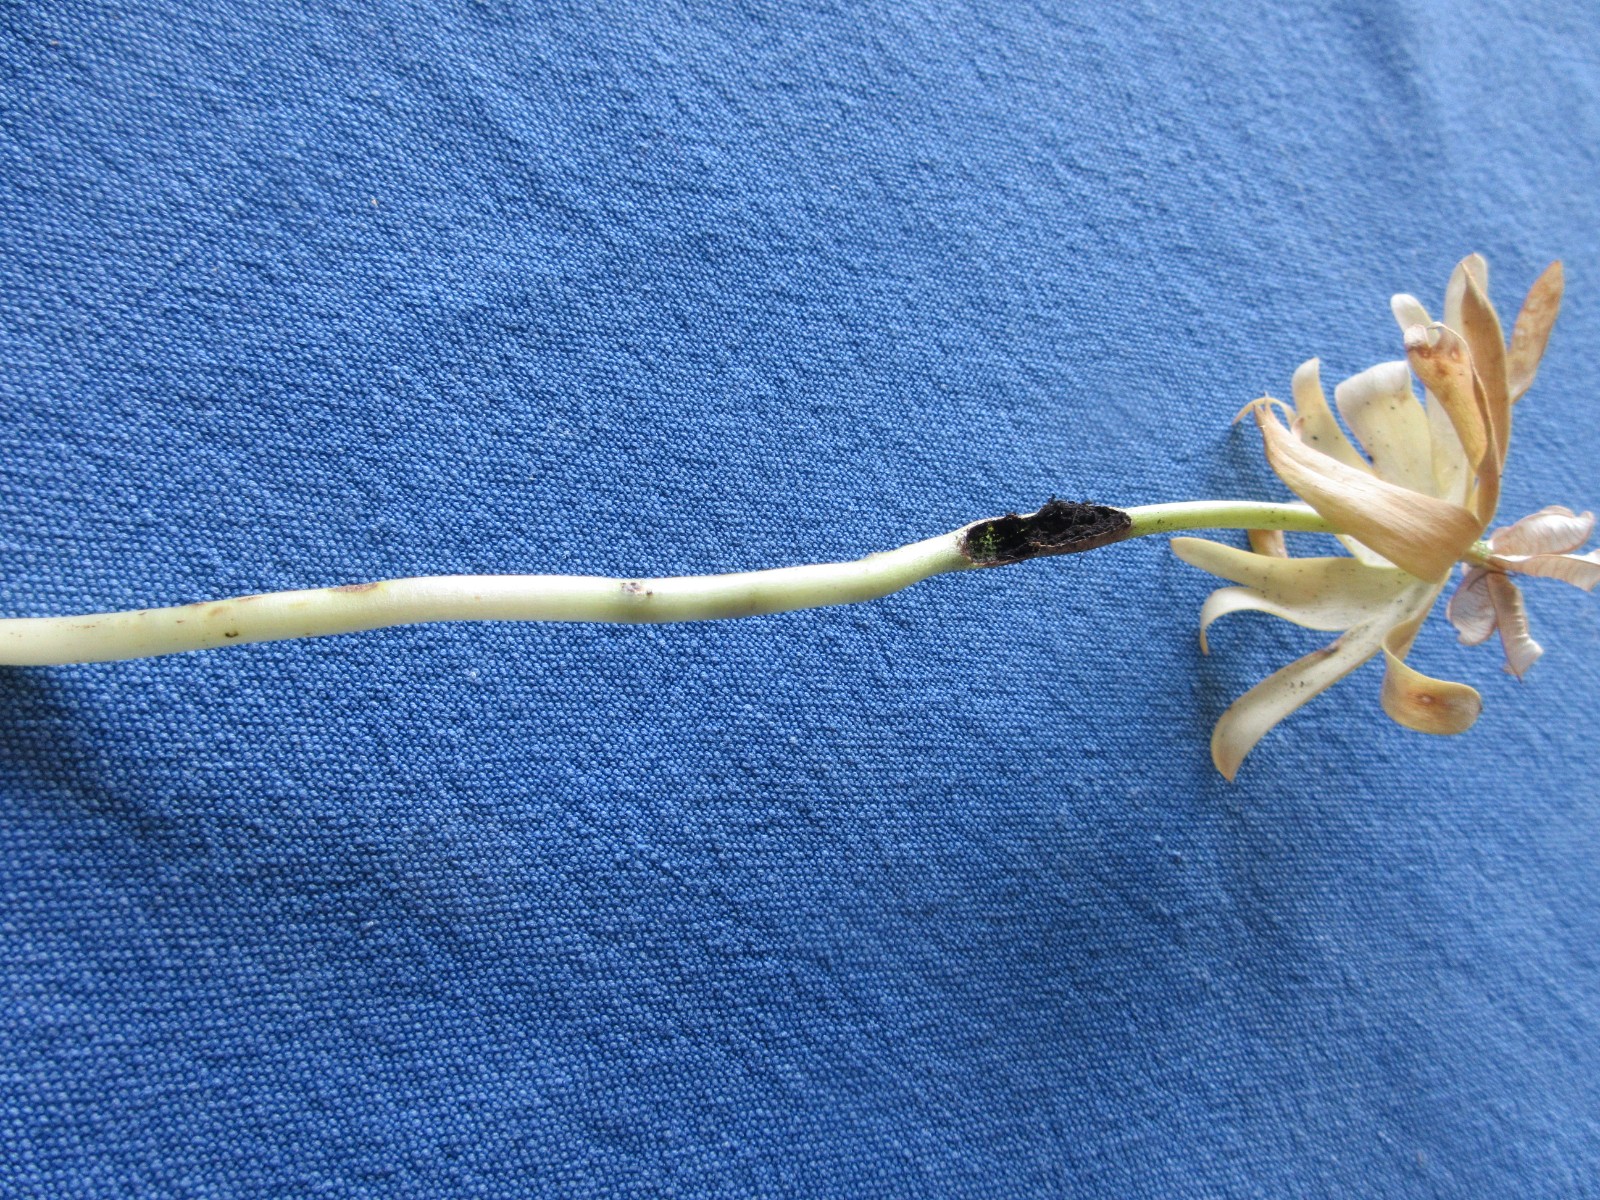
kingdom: Fungi
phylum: Basidiomycota
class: Ustilaginomycetes
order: Urocystidales
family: Urocystidaceae
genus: Urocystis
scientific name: Urocystis eranthidis
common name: erantis-brand
